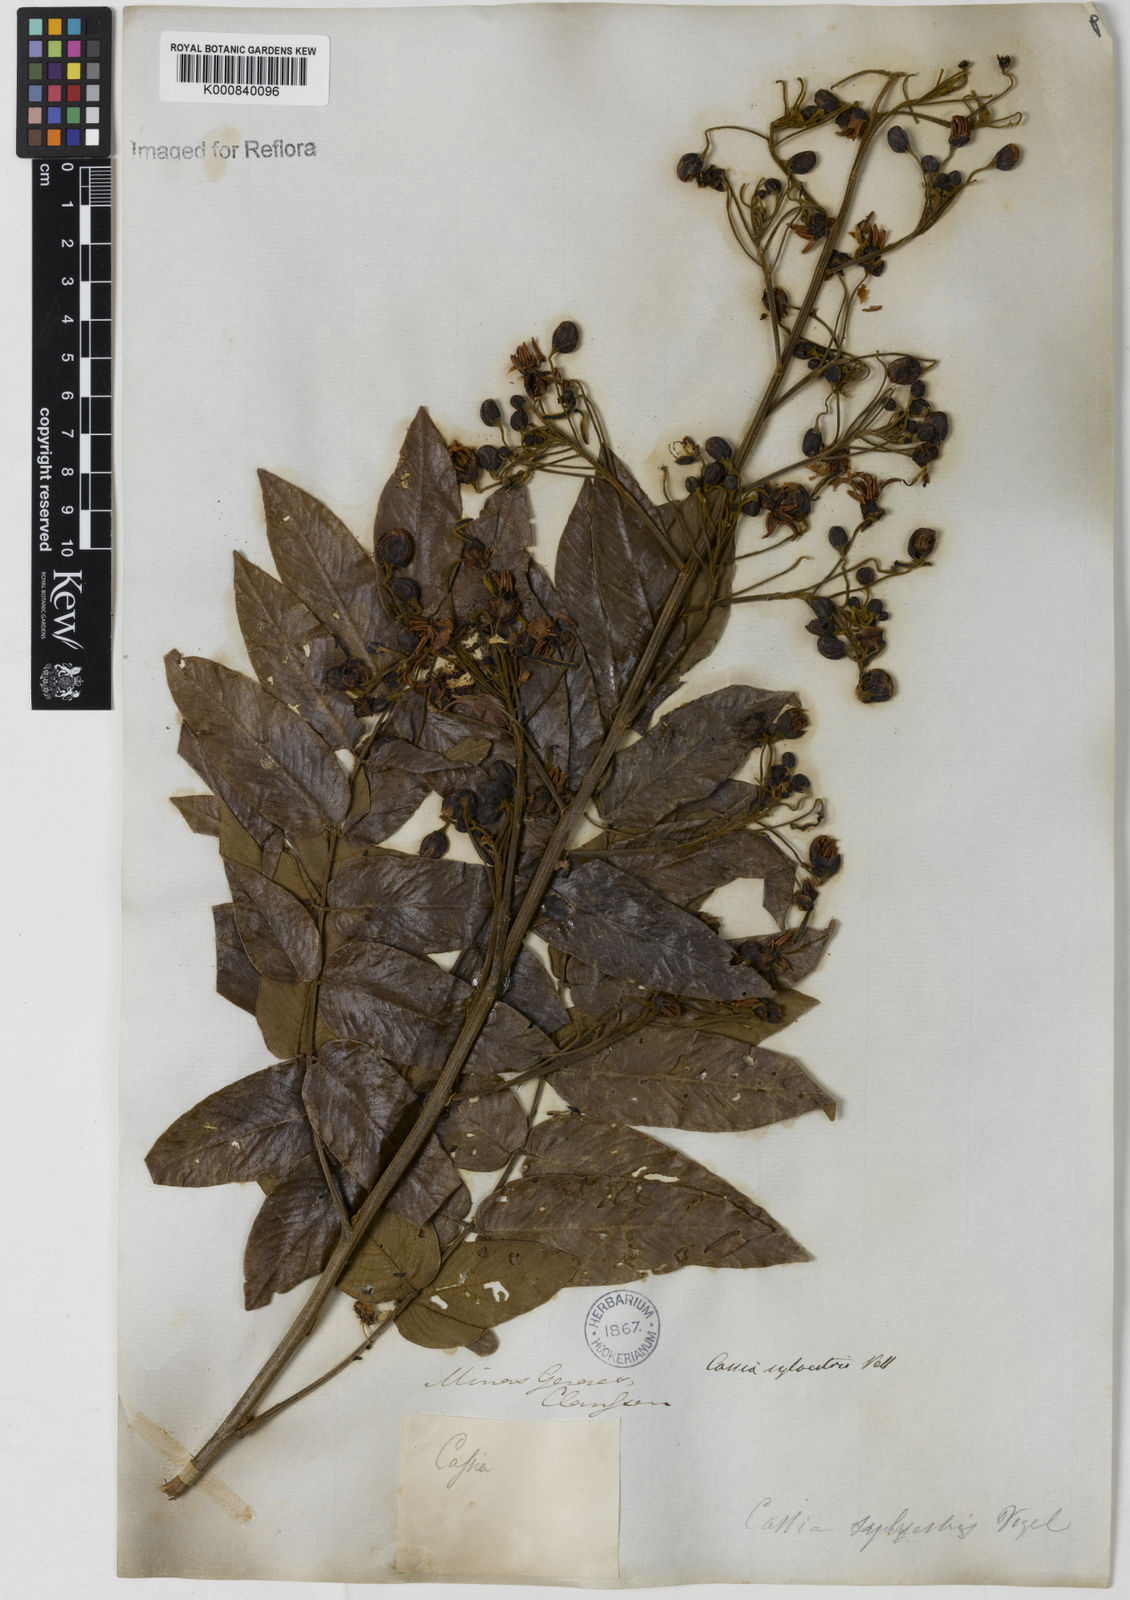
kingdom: Plantae
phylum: Tracheophyta
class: Magnoliopsida
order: Fabales
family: Fabaceae
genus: Senna
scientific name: Senna silvestris
